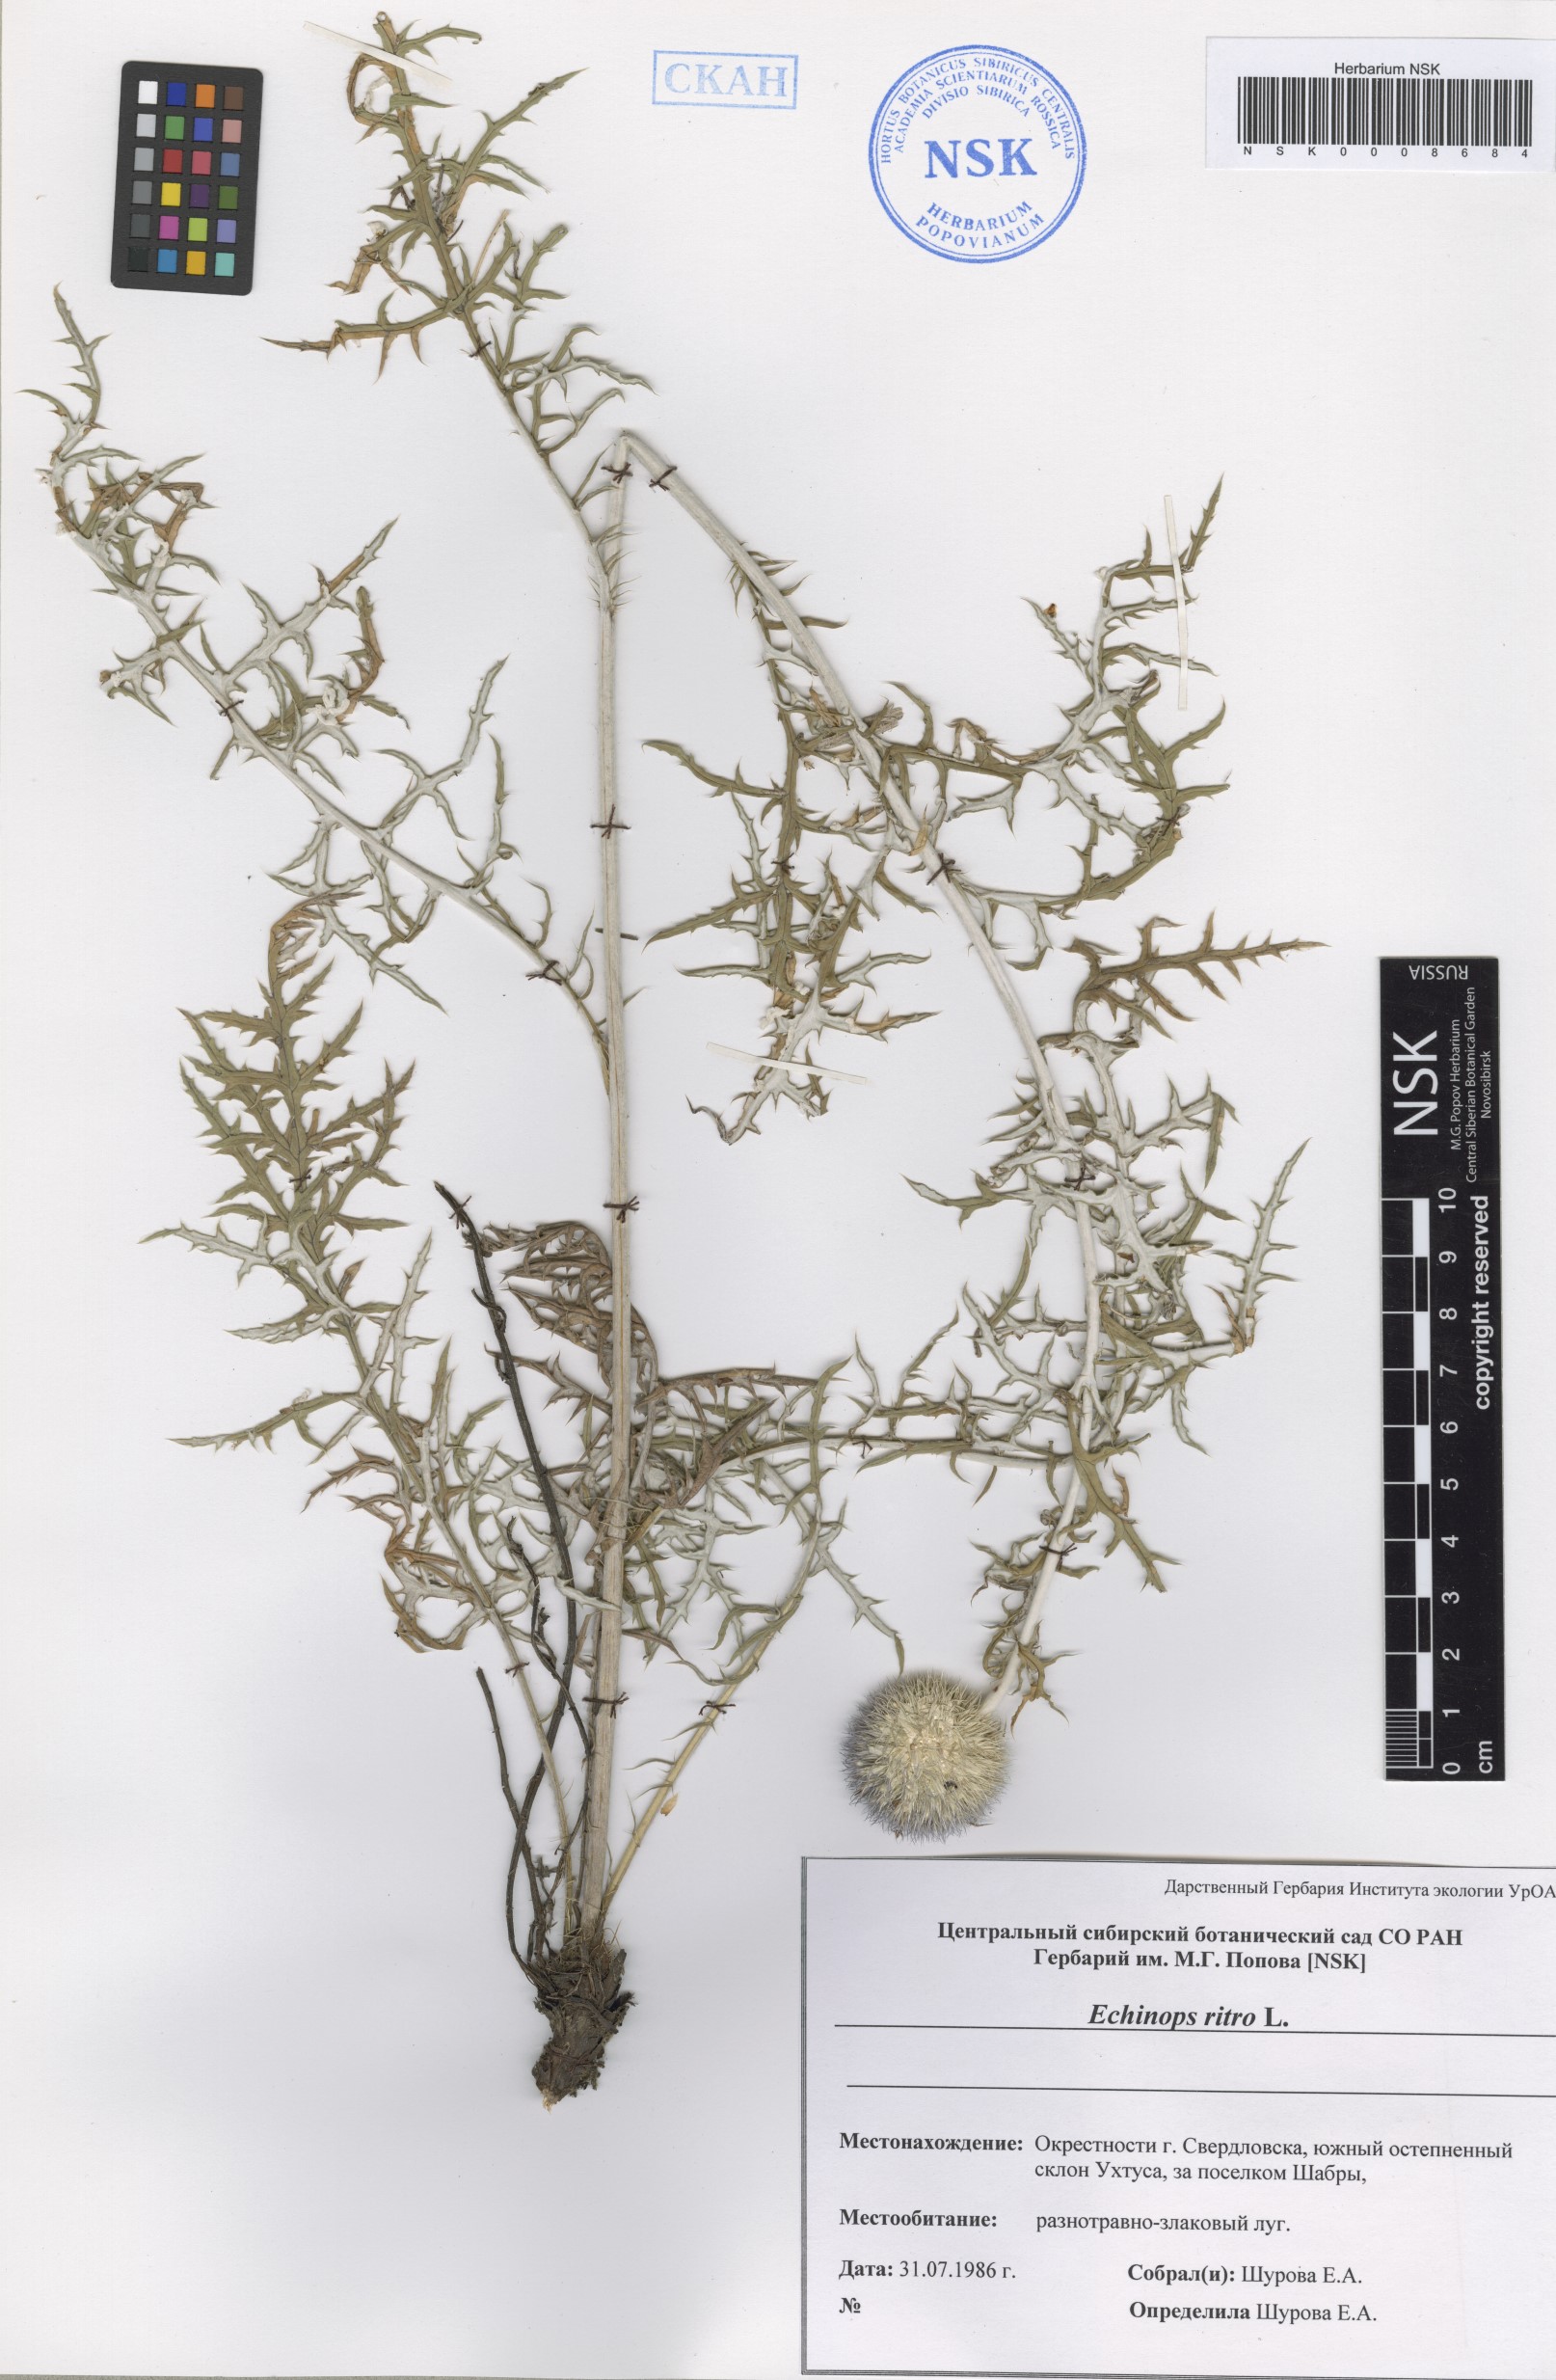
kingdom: Plantae
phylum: Tracheophyta
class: Magnoliopsida
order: Asterales
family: Asteraceae
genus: Echinops
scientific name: Echinops ritro
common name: Globe thistle
